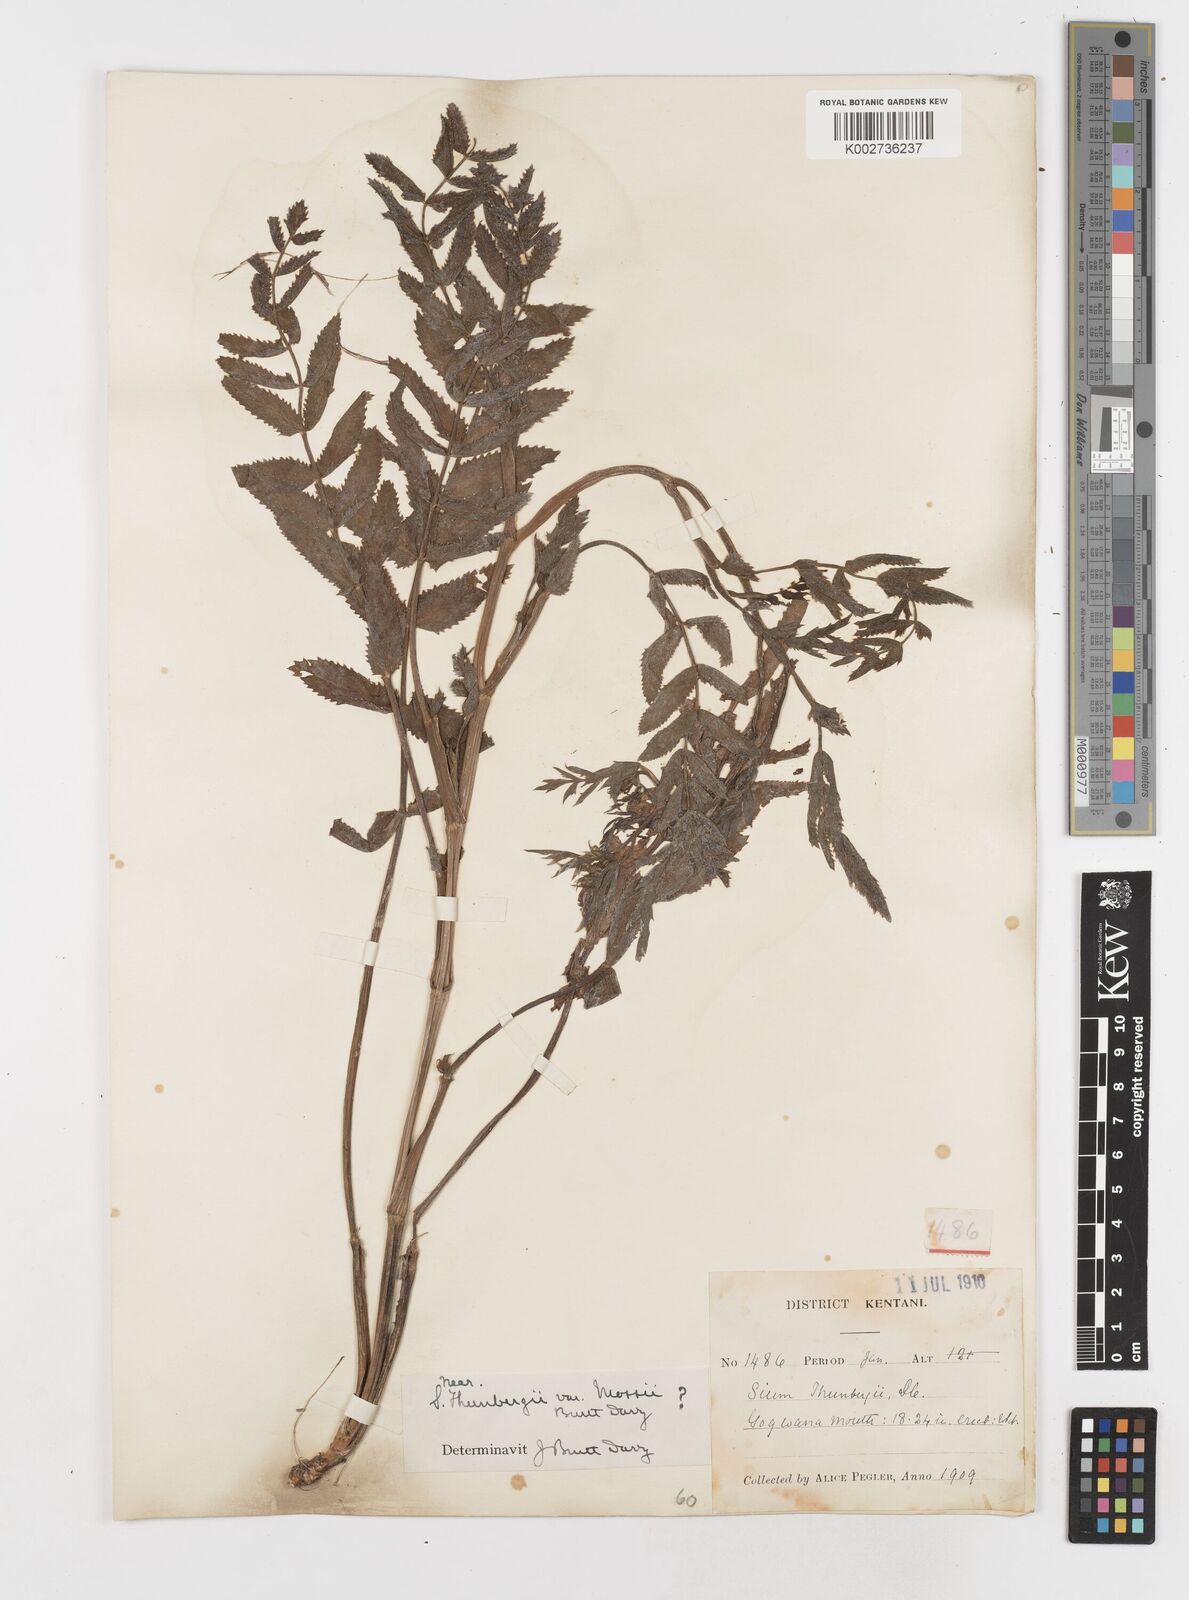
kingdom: Plantae
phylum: Tracheophyta
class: Magnoliopsida
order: Apiales
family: Apiaceae
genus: Berula
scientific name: Berula erecta
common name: Lesser water-parsnip
